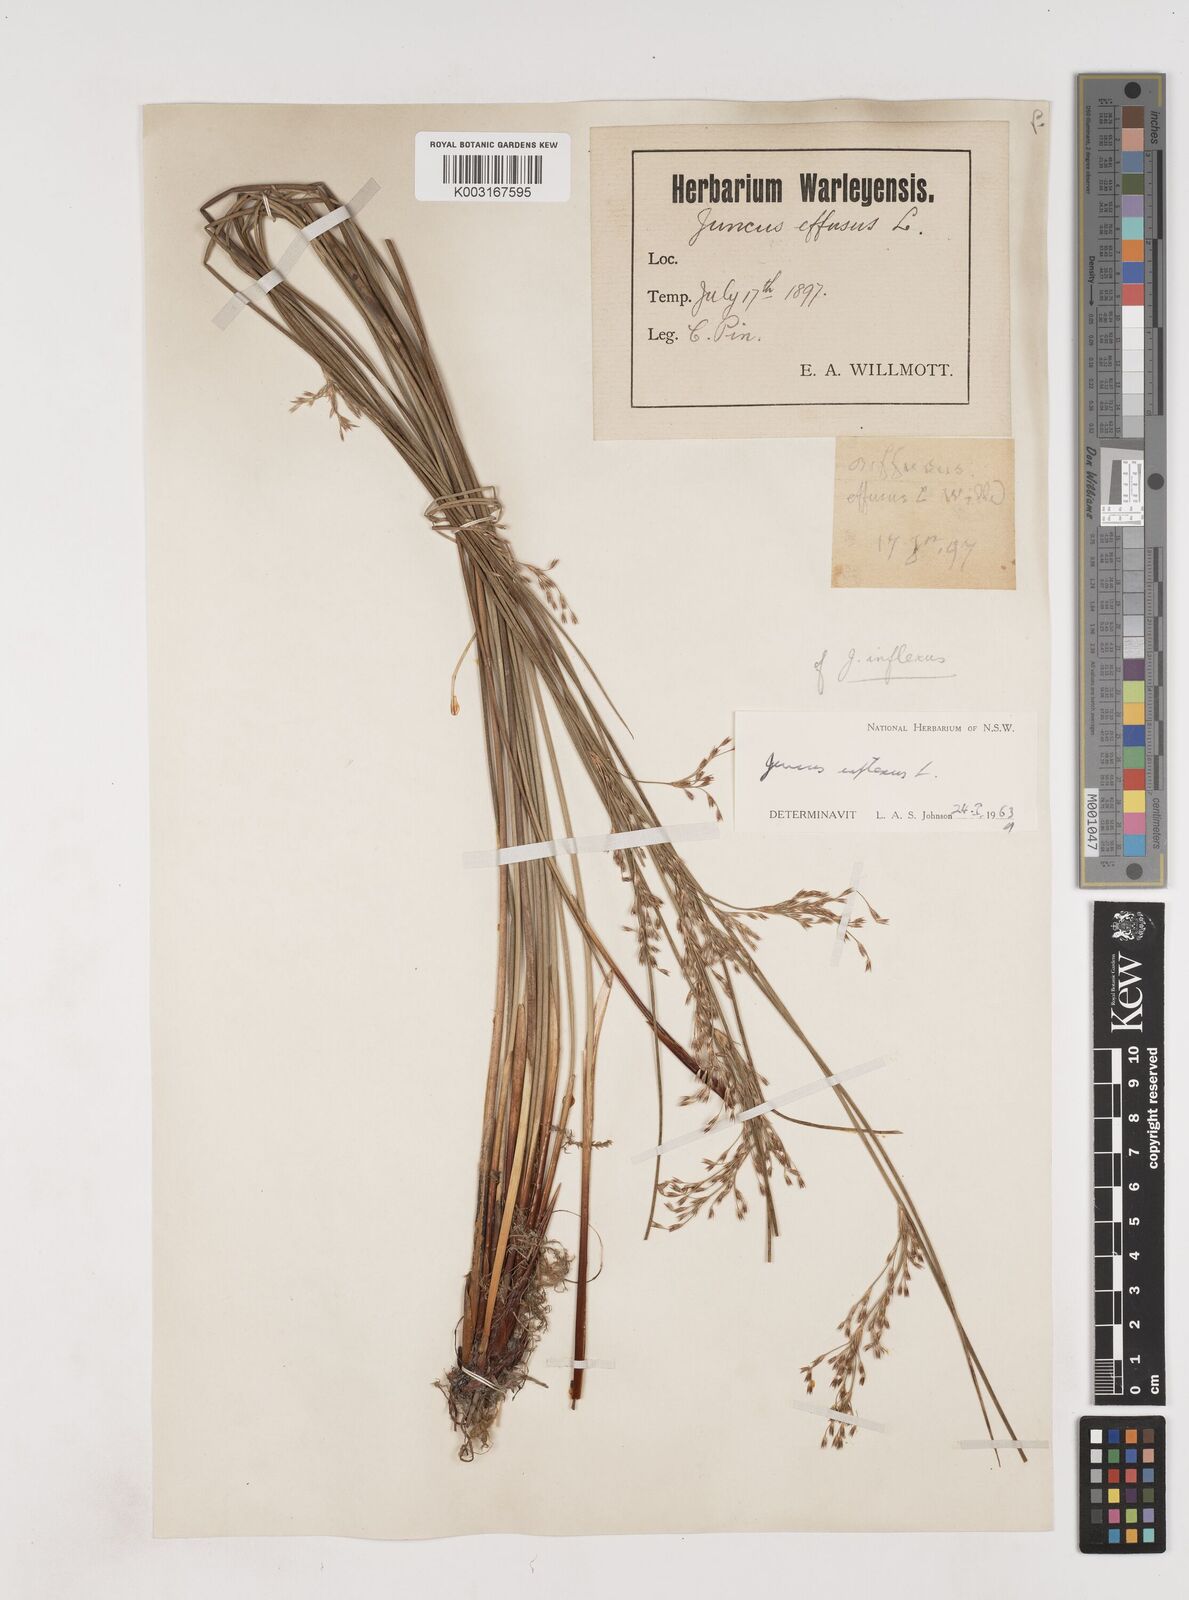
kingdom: Plantae
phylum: Tracheophyta
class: Liliopsida
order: Poales
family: Juncaceae
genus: Juncus
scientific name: Juncus inflexus
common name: Hard rush
